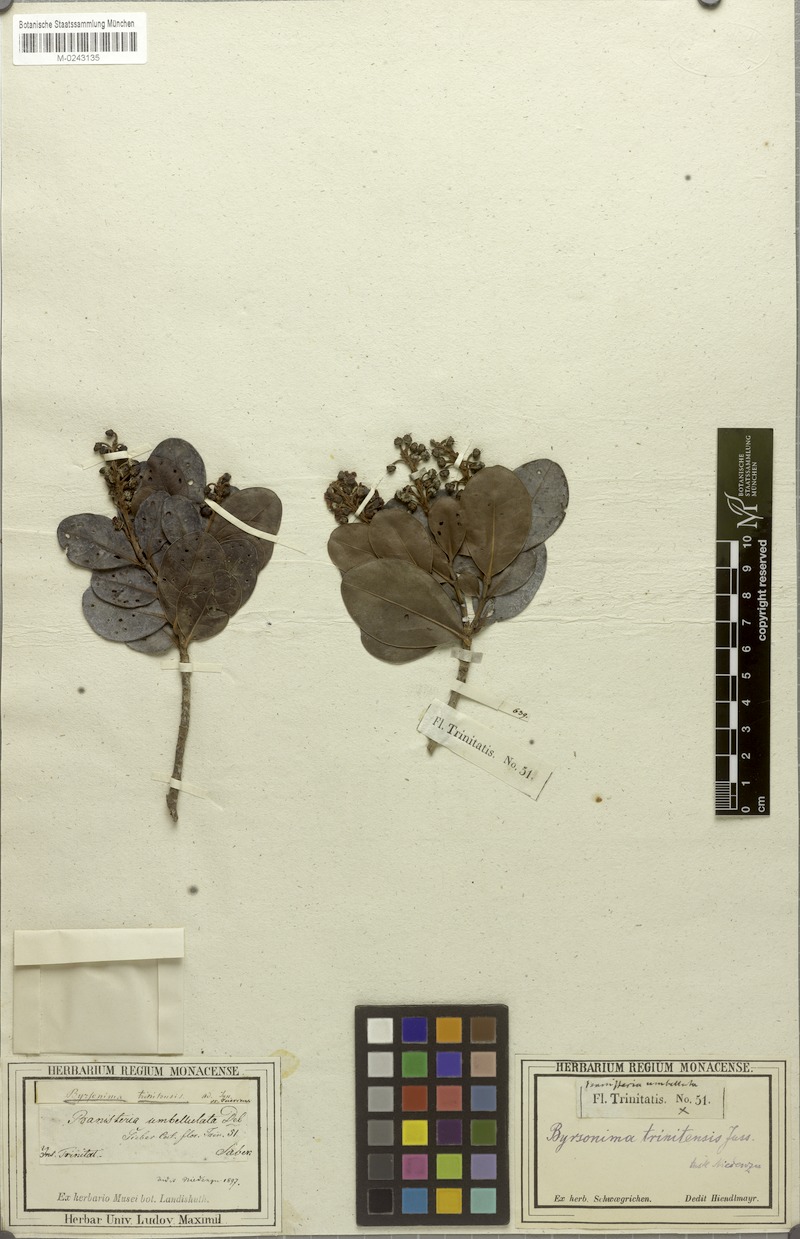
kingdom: Plantae
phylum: Tracheophyta
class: Magnoliopsida
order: Malpighiales
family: Malpighiaceae
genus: Byrsonima
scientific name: Byrsonima trinitensis
